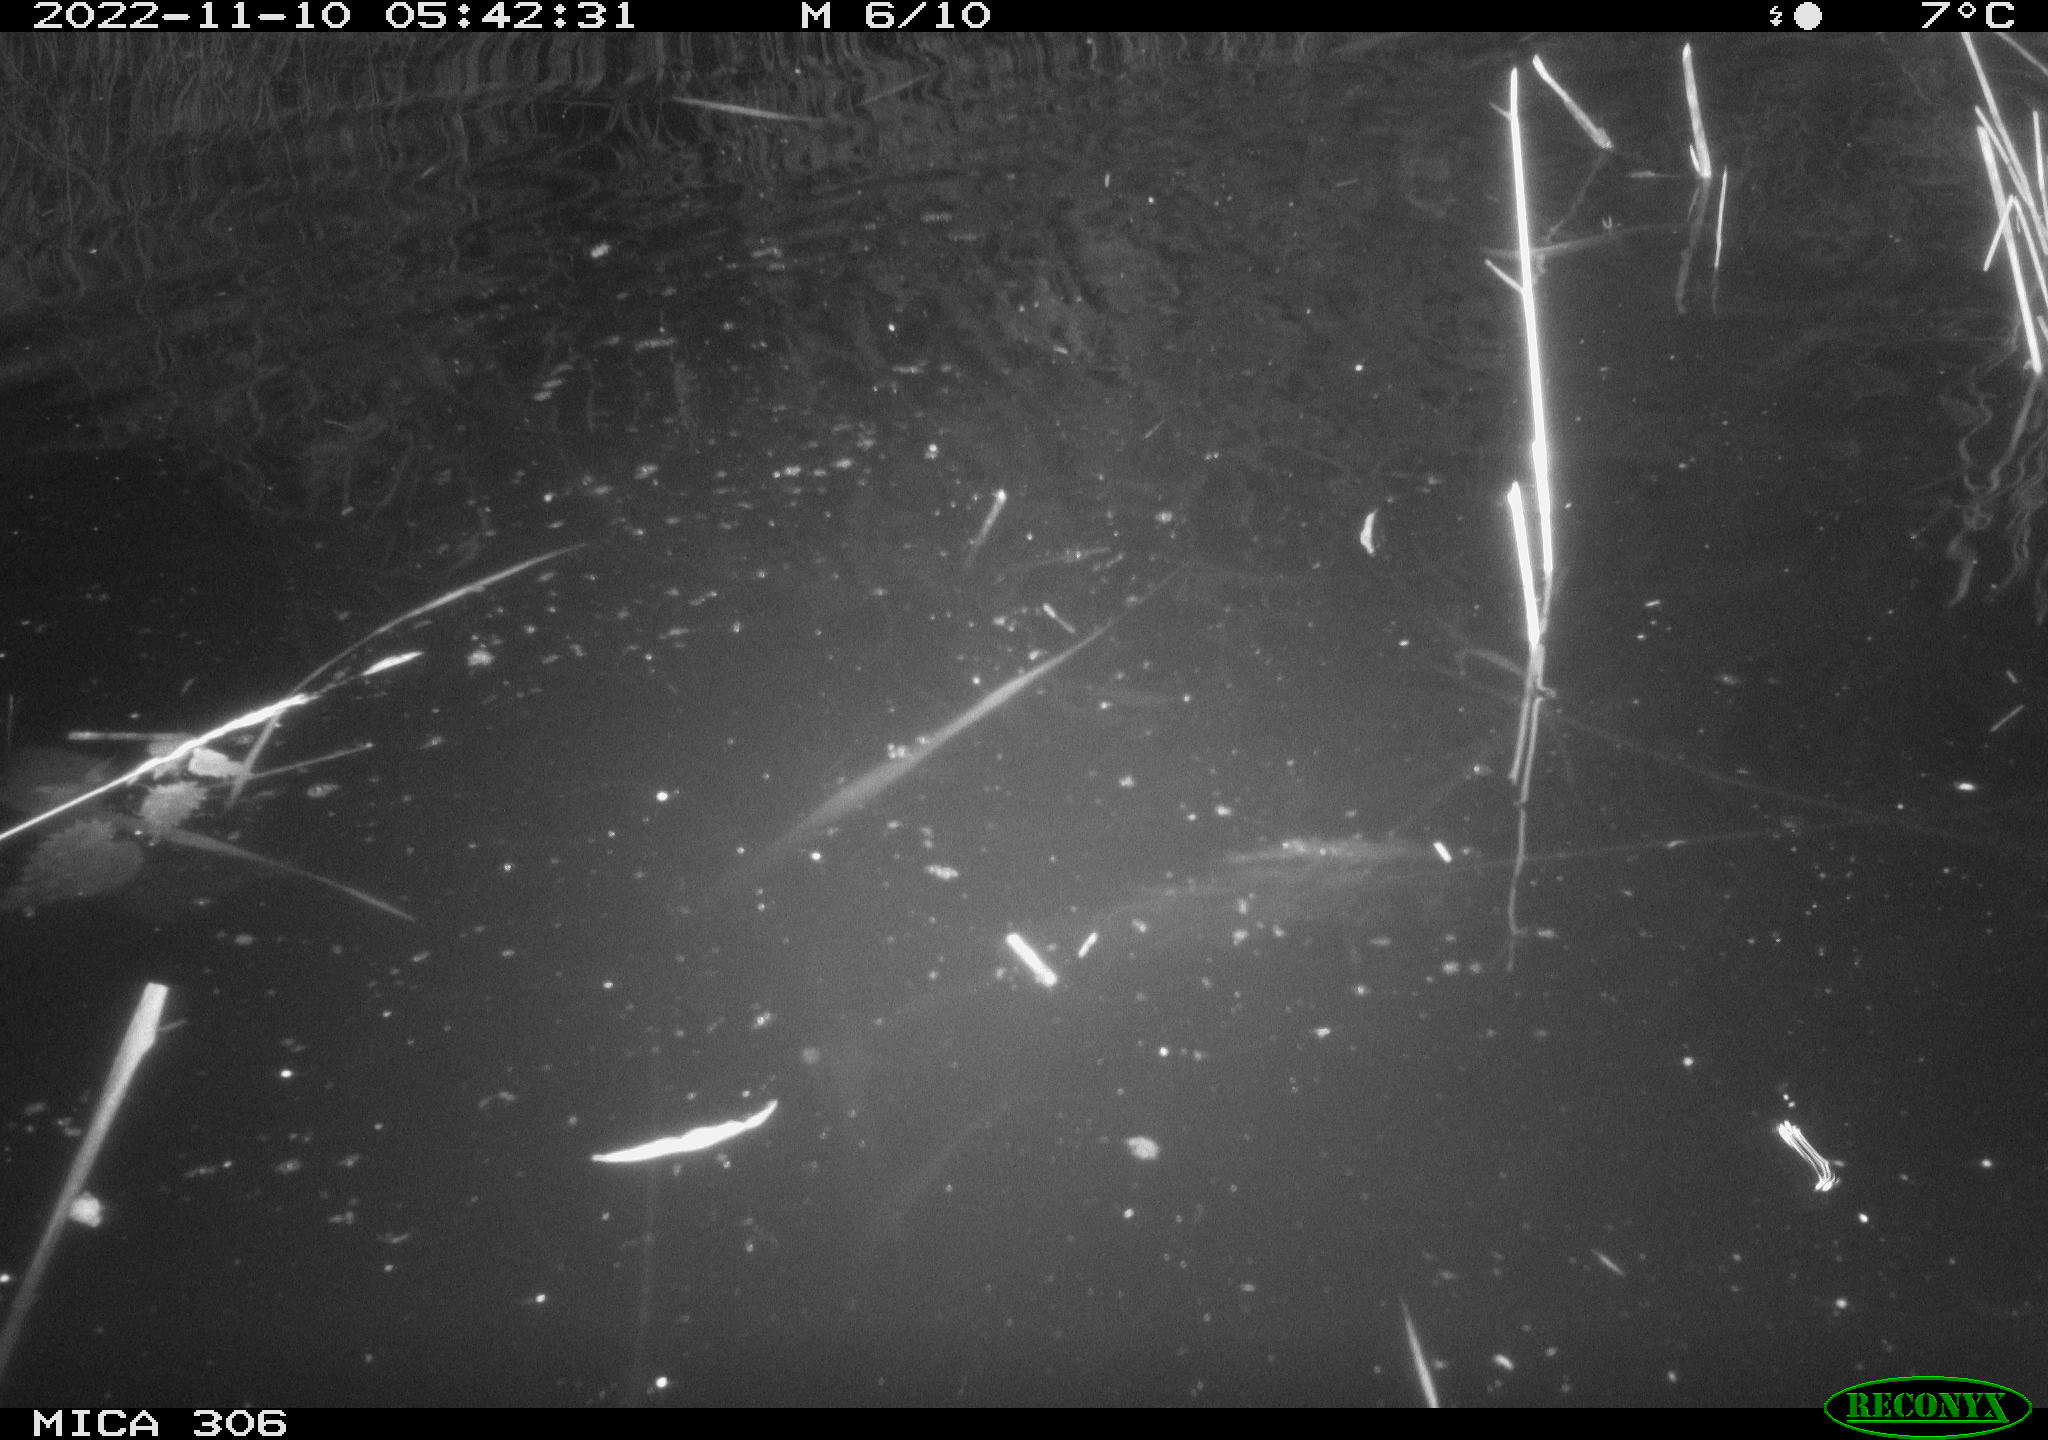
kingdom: Animalia
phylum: Chordata
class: Mammalia
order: Rodentia
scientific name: Rodentia
